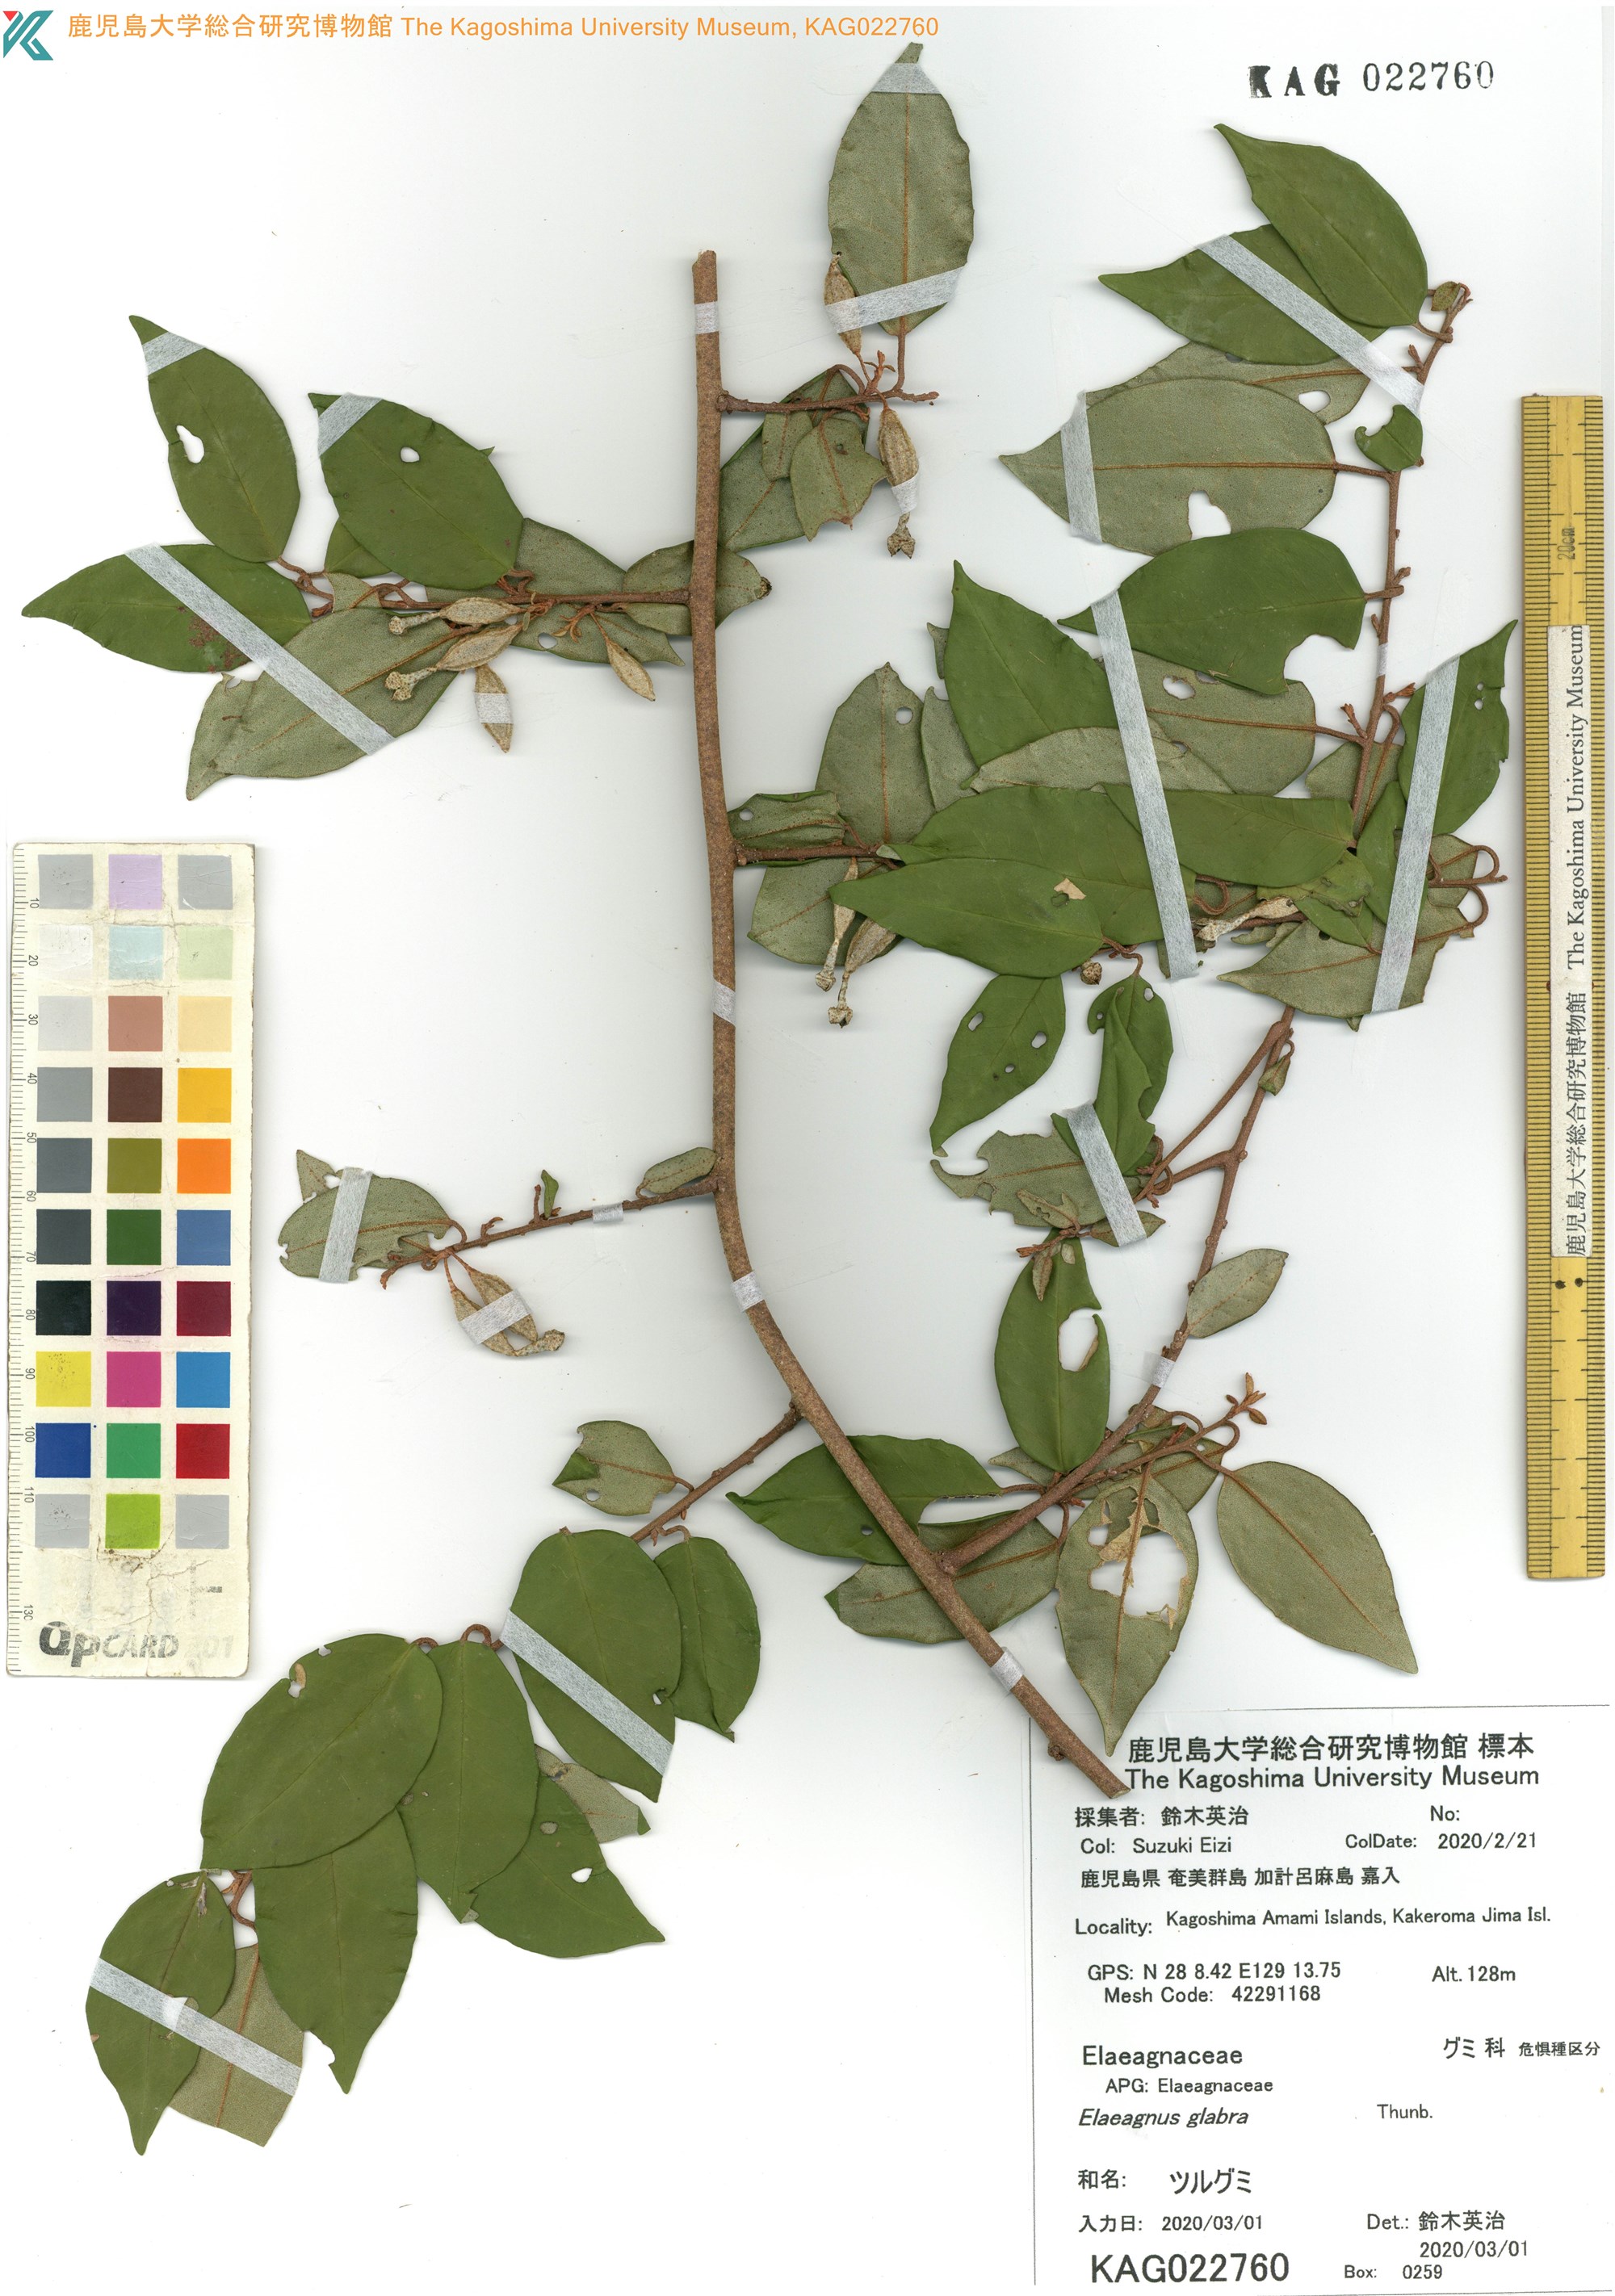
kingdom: Plantae
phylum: Tracheophyta
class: Magnoliopsida
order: Rosales
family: Elaeagnaceae
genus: Elaeagnus
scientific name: Elaeagnus thunbergii
